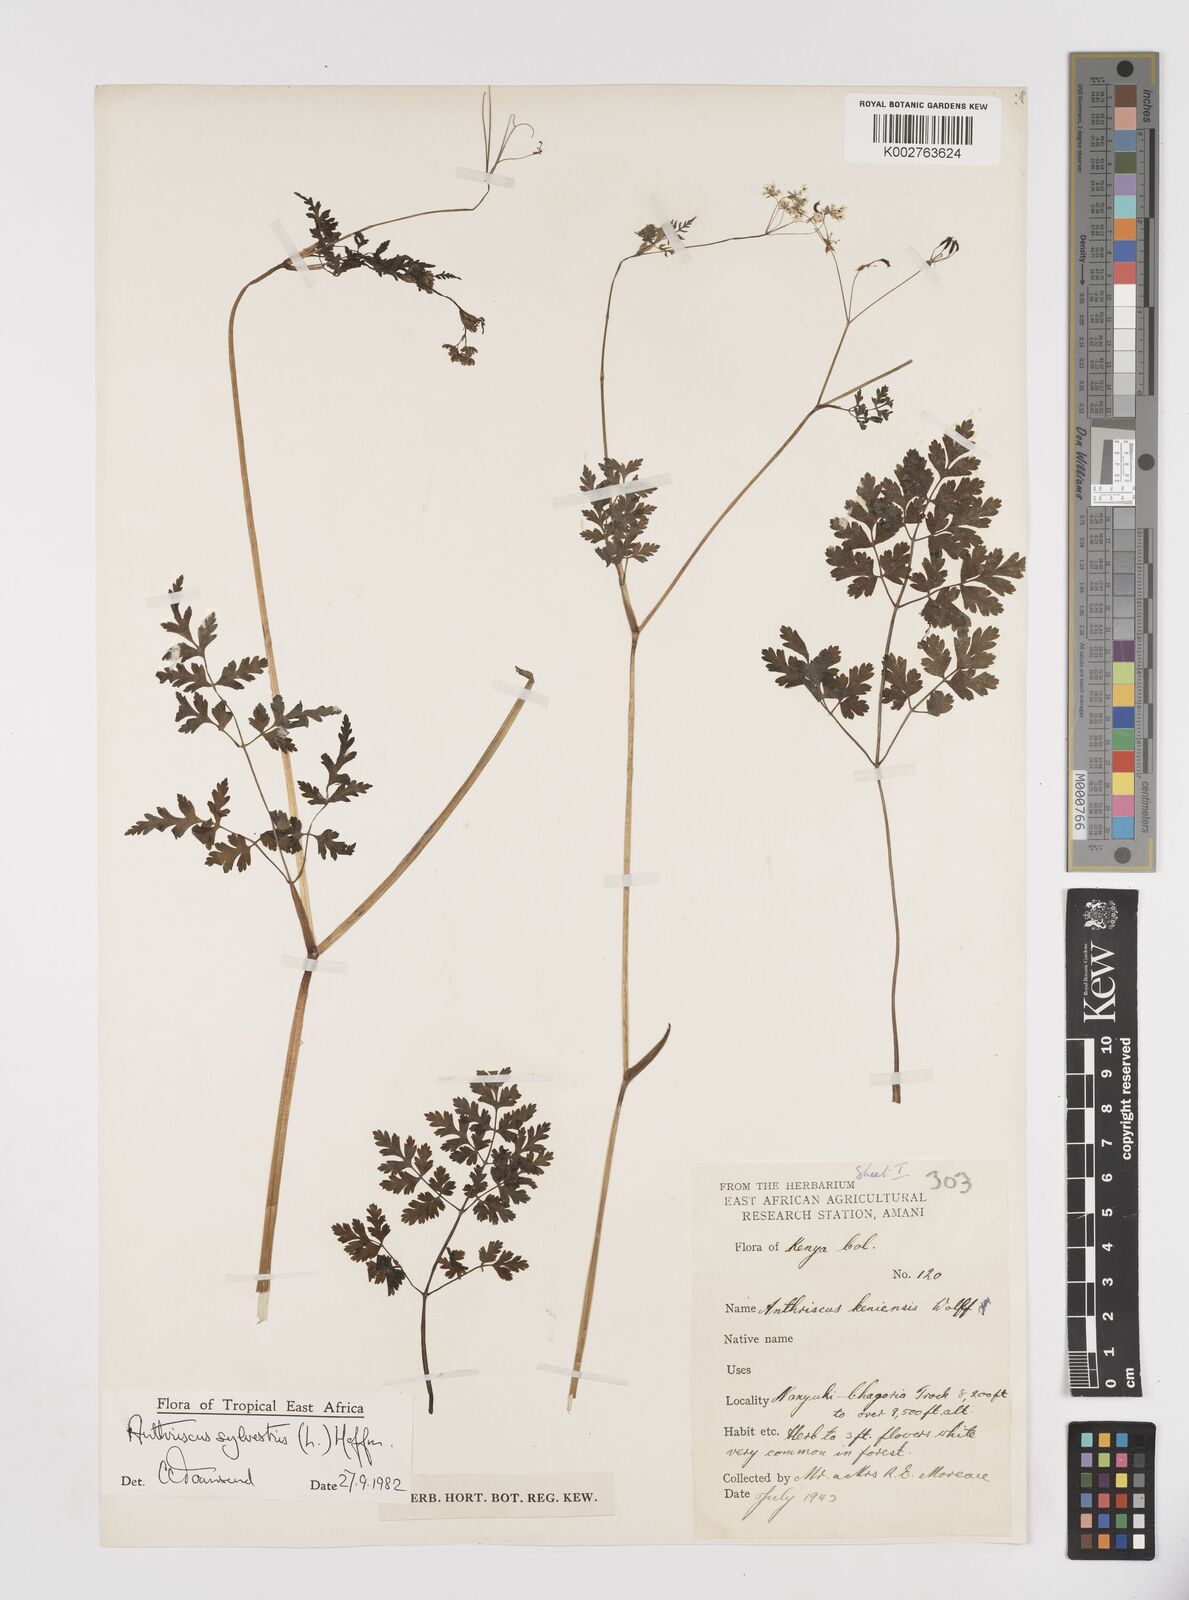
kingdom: Plantae
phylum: Tracheophyta
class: Magnoliopsida
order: Apiales
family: Apiaceae
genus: Anthriscus
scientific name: Anthriscus sylvestris
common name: Cow parsley
